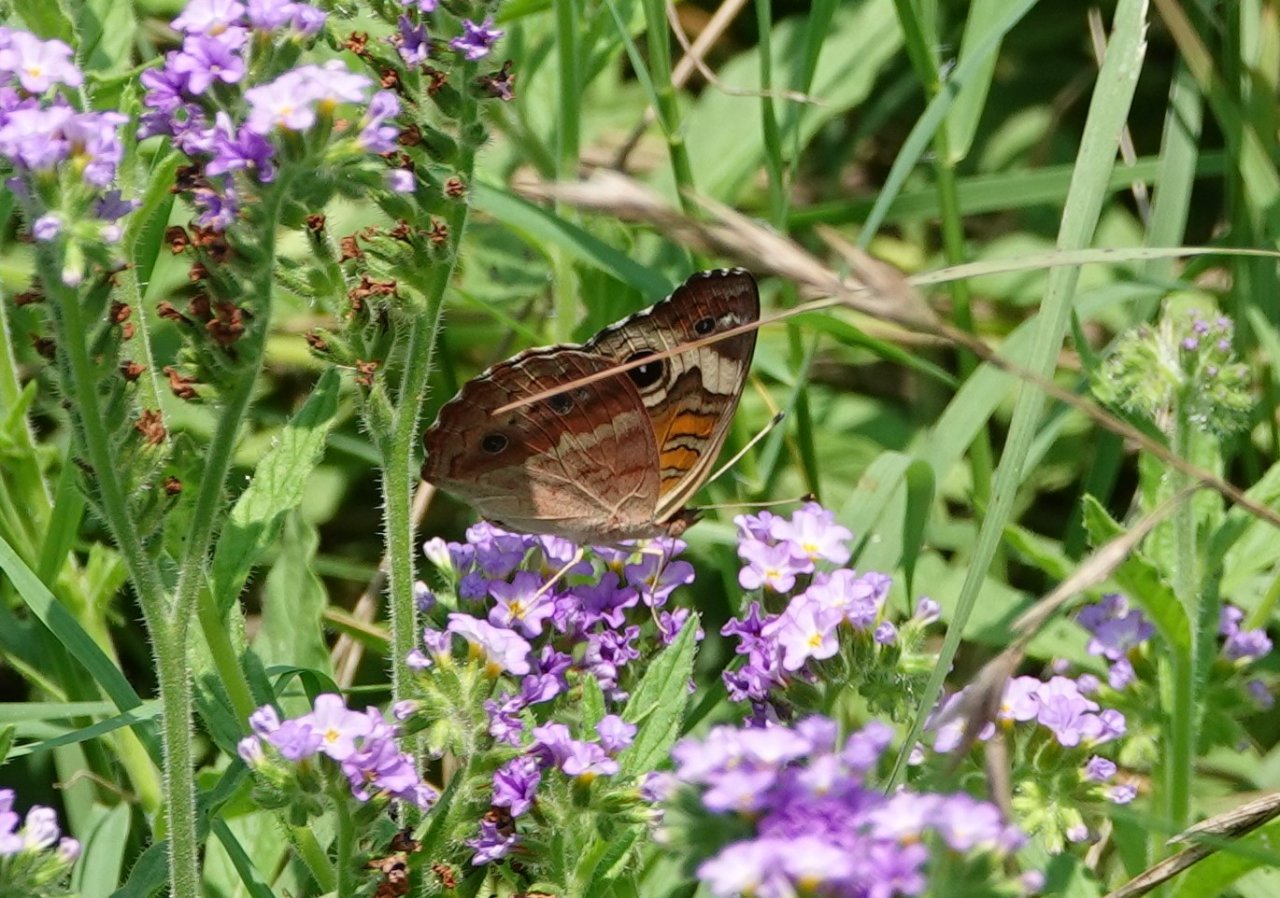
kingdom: Animalia
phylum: Arthropoda
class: Insecta
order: Lepidoptera
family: Nymphalidae
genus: Junonia
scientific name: Junonia coenia
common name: Common Buckeye
